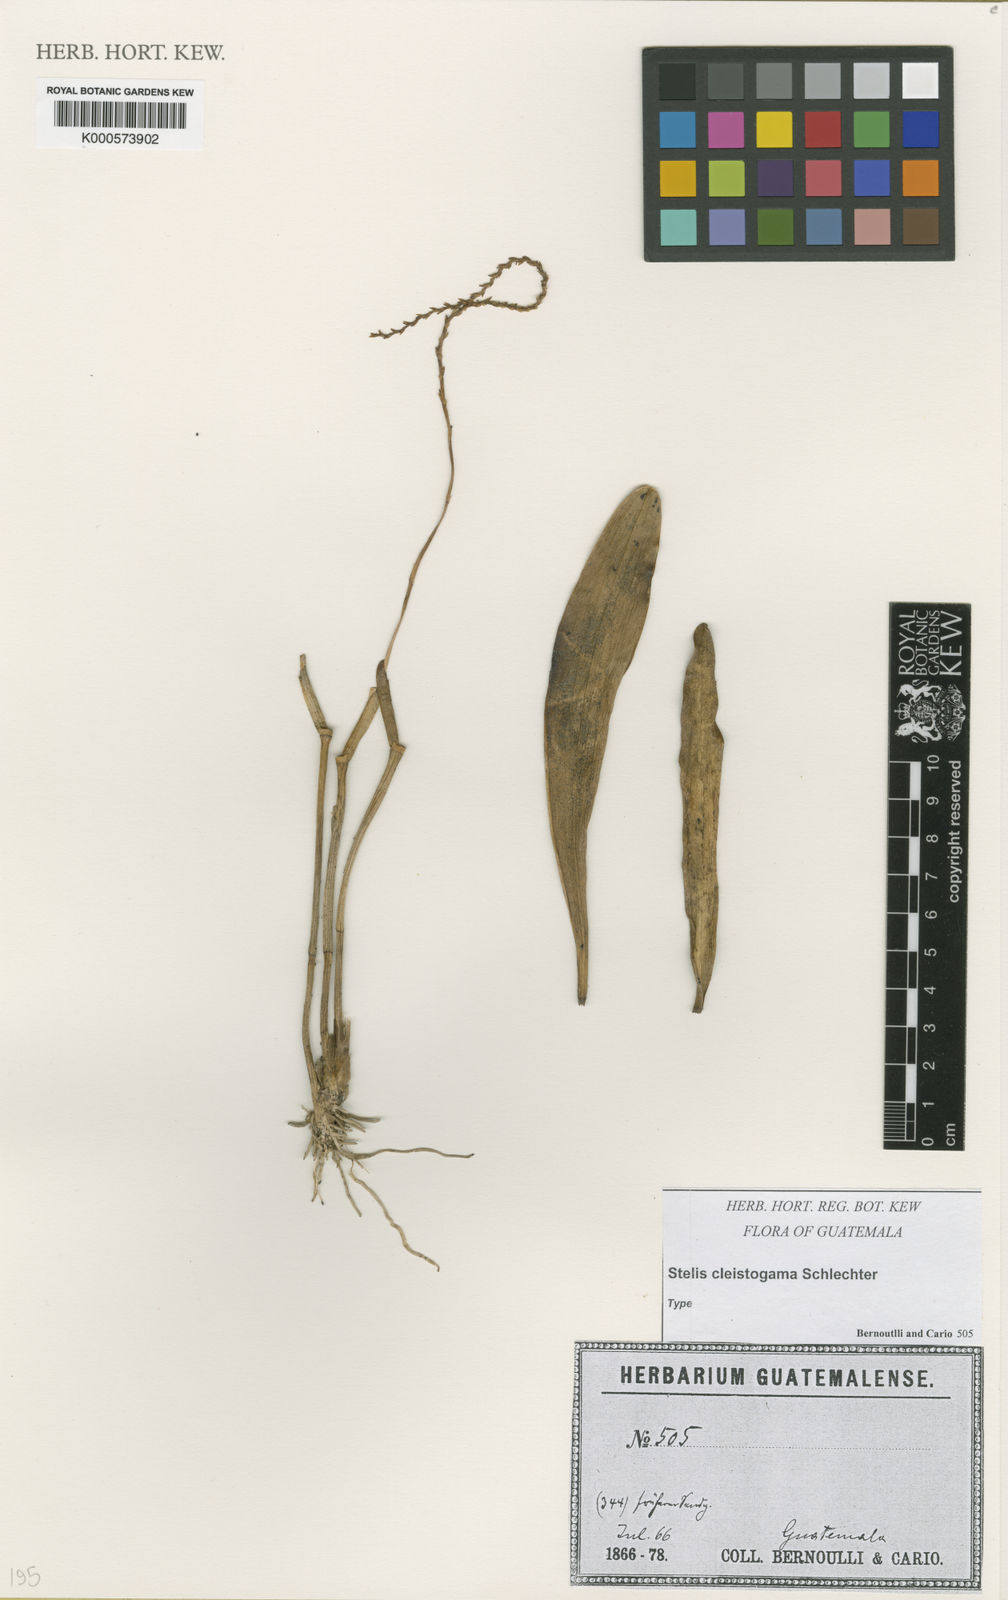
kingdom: Plantae
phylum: Tracheophyta
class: Liliopsida
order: Asparagales
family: Orchidaceae
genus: Stelis
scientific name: Stelis cleistogama
